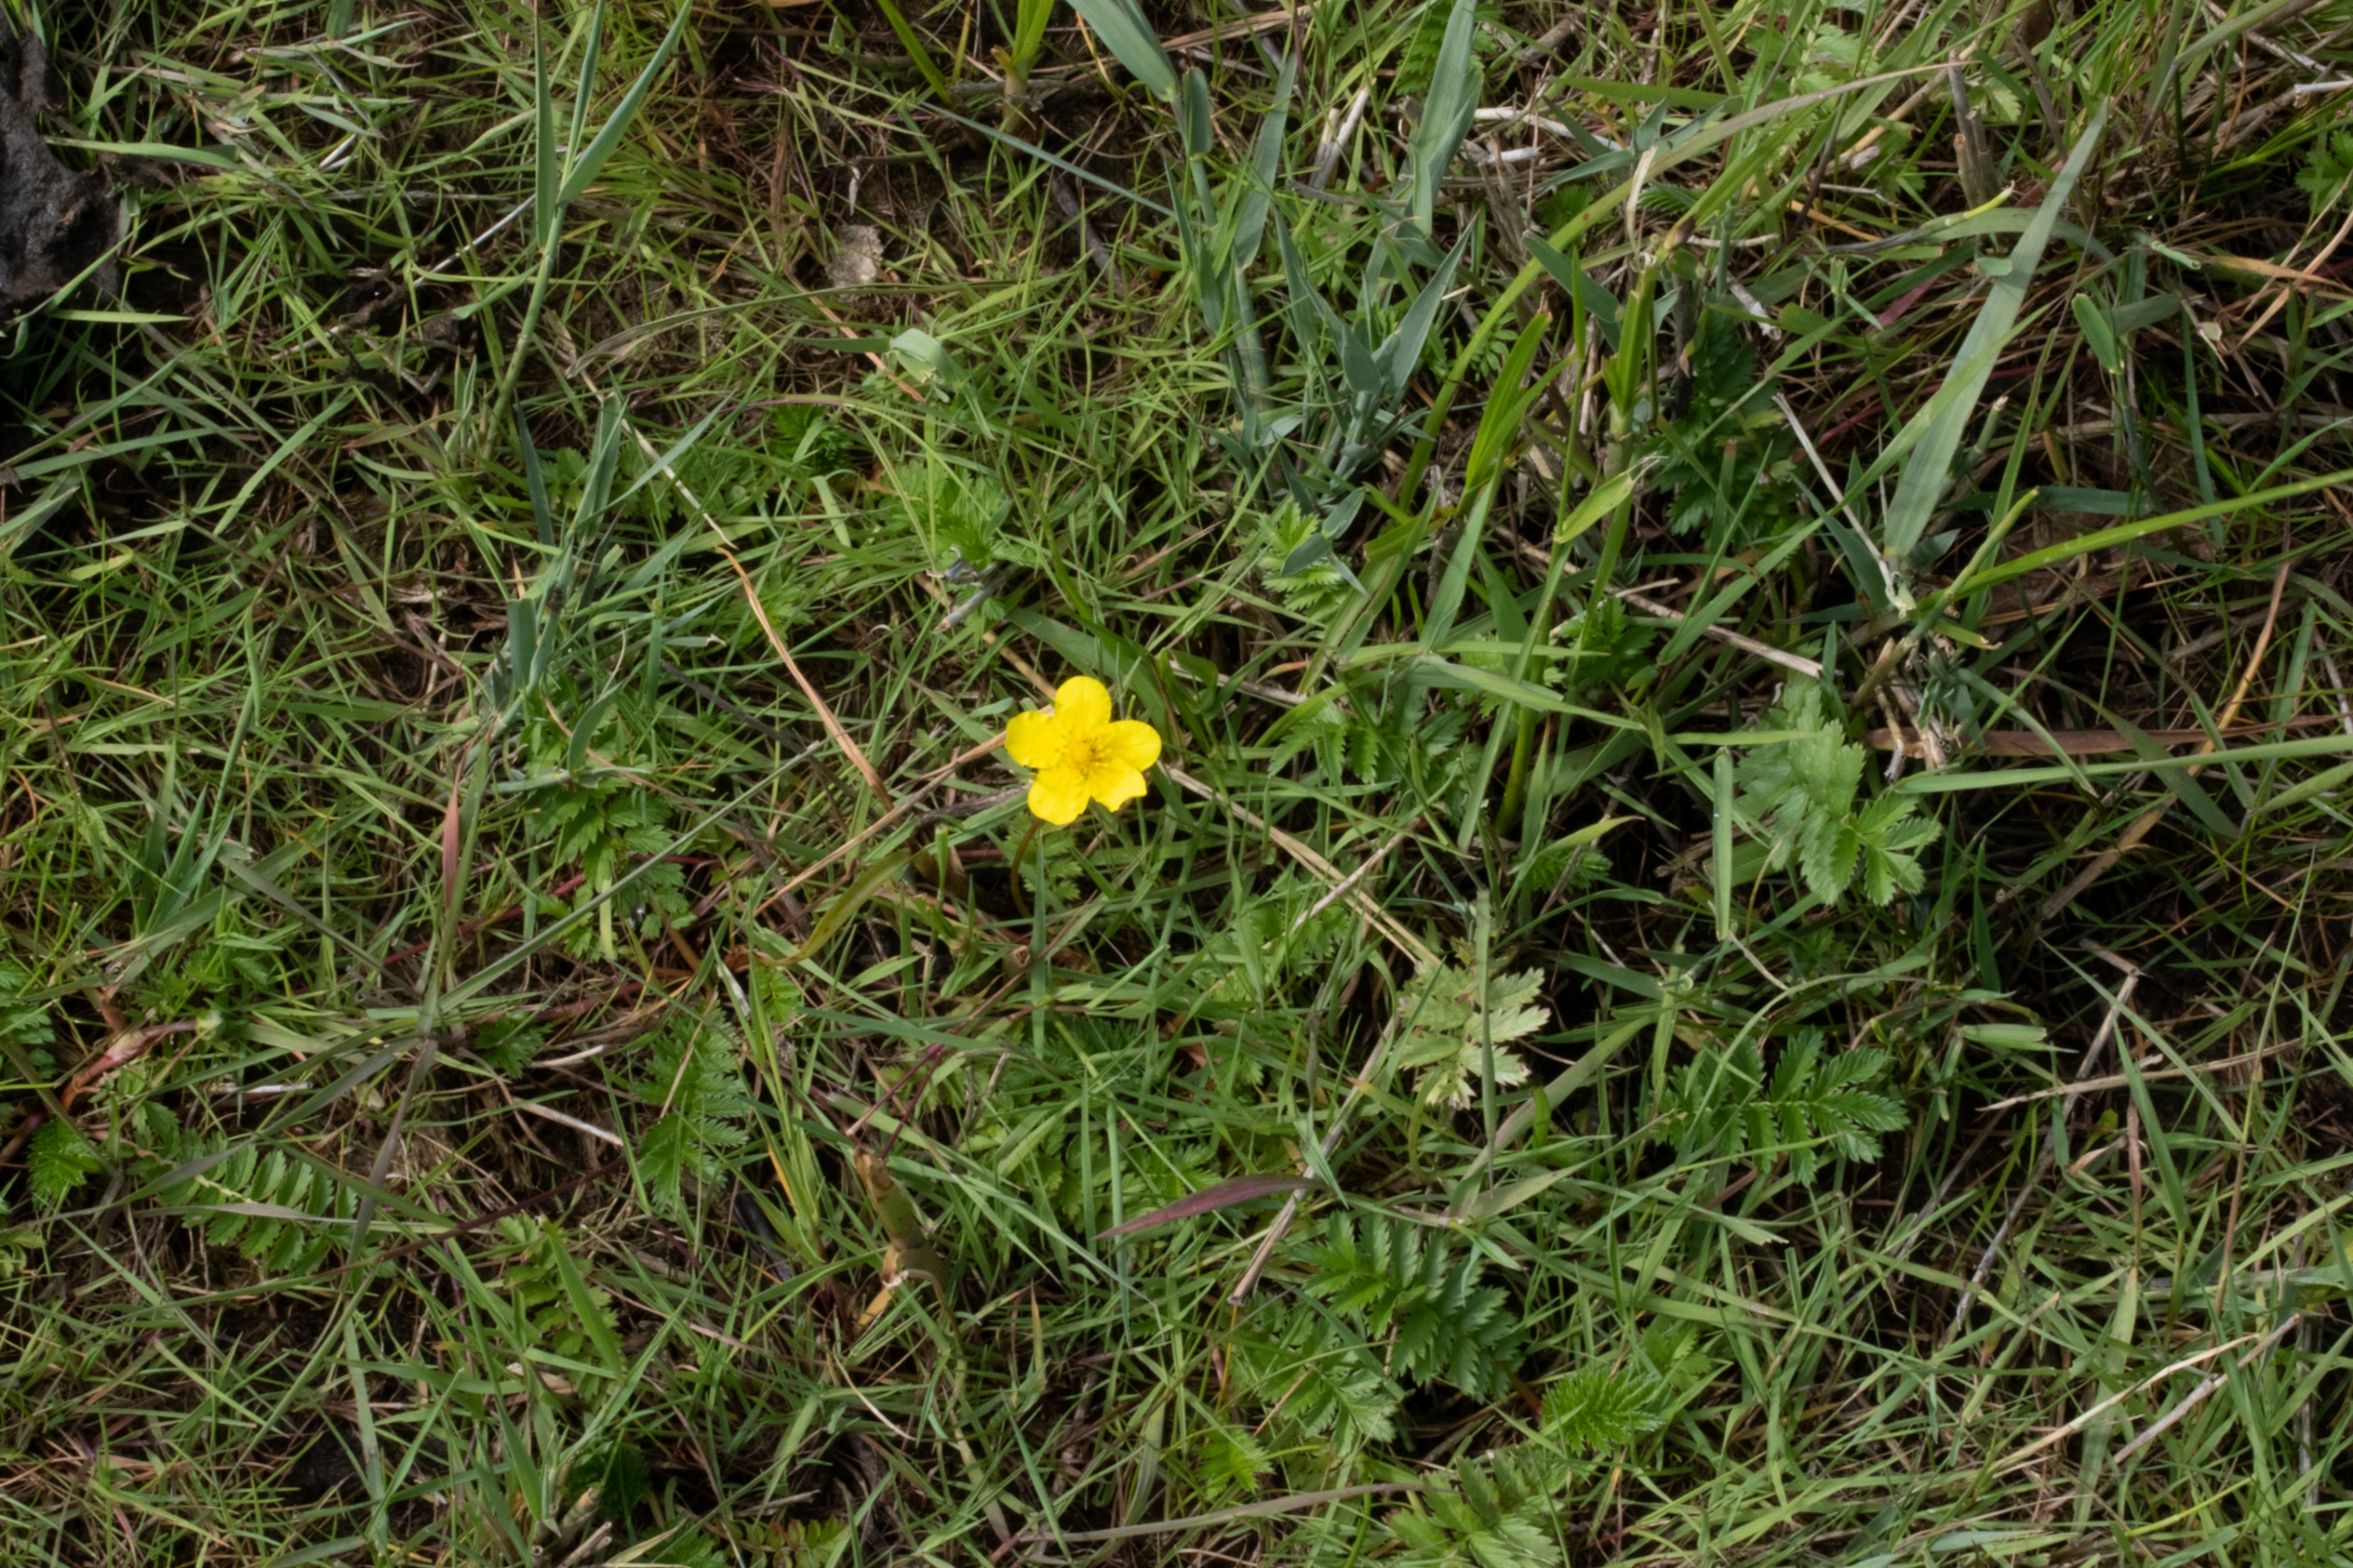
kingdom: Plantae
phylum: Tracheophyta
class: Magnoliopsida
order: Rosales
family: Rosaceae
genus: Argentina
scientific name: Argentina anserina
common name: Gåsepotentil
